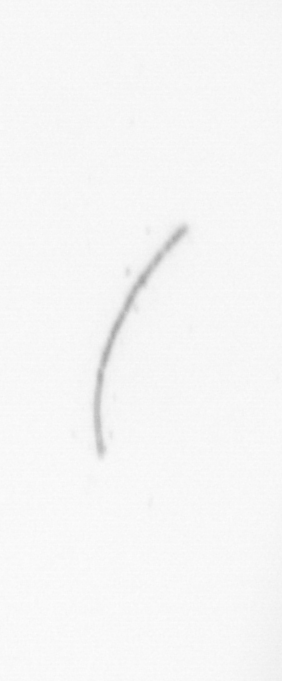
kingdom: Chromista
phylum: Ochrophyta
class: Bacillariophyceae
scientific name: Bacillariophyceae
